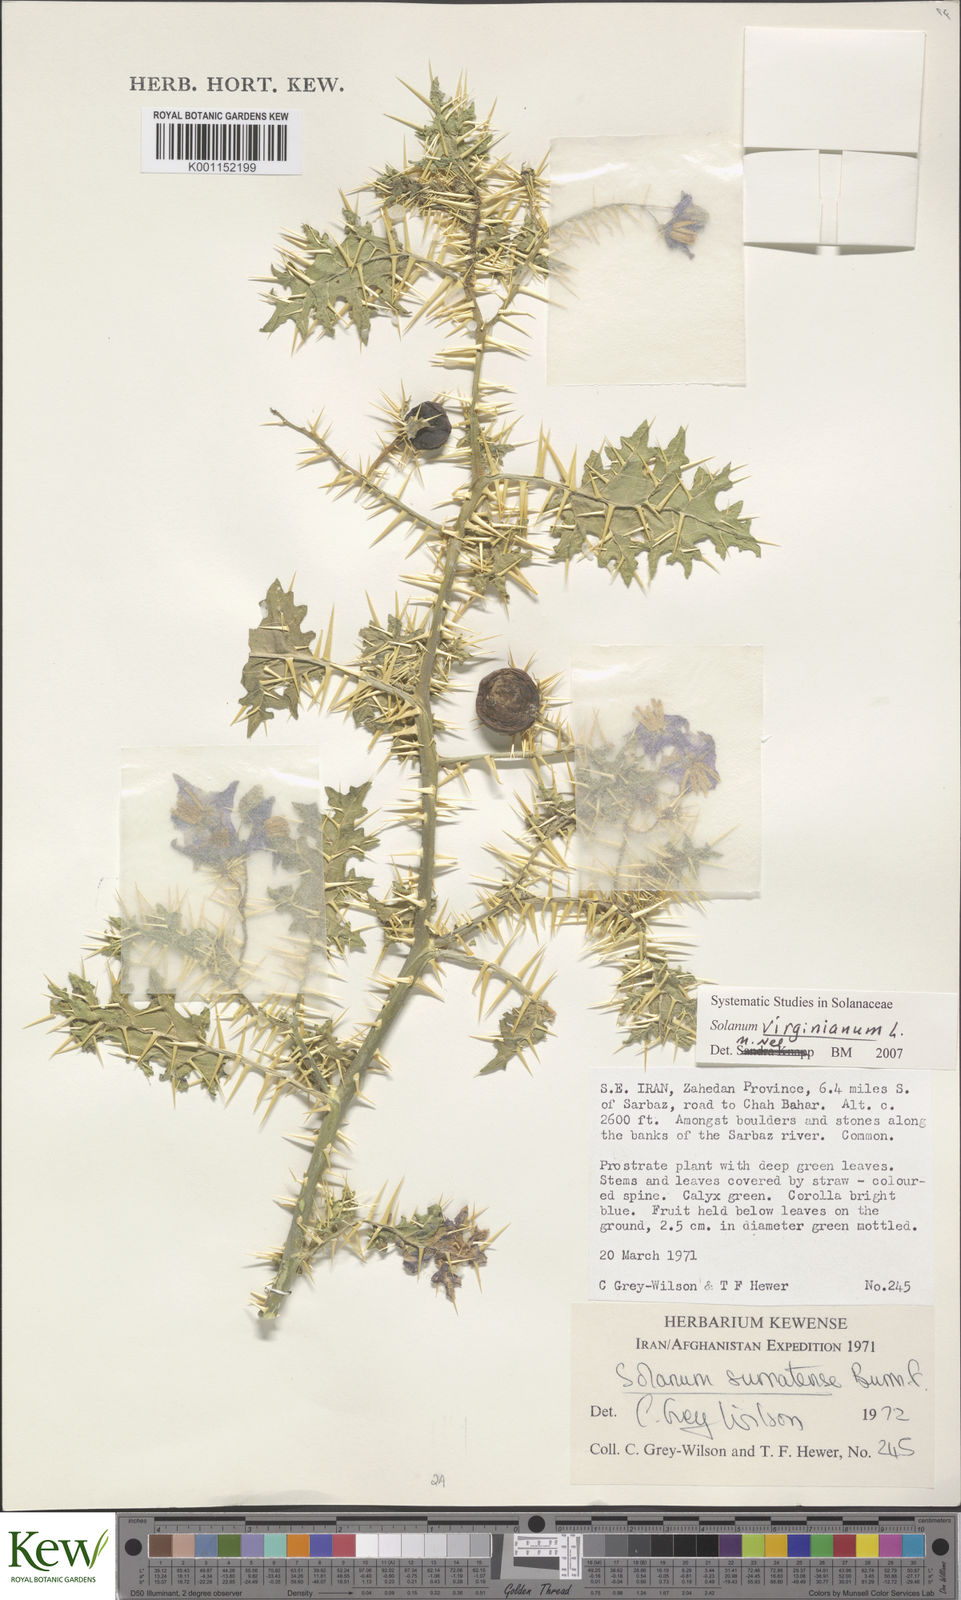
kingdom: Plantae
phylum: Tracheophyta
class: Magnoliopsida
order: Solanales
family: Solanaceae
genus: Solanum
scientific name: Solanum virginianum
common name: Surattense nightshade
